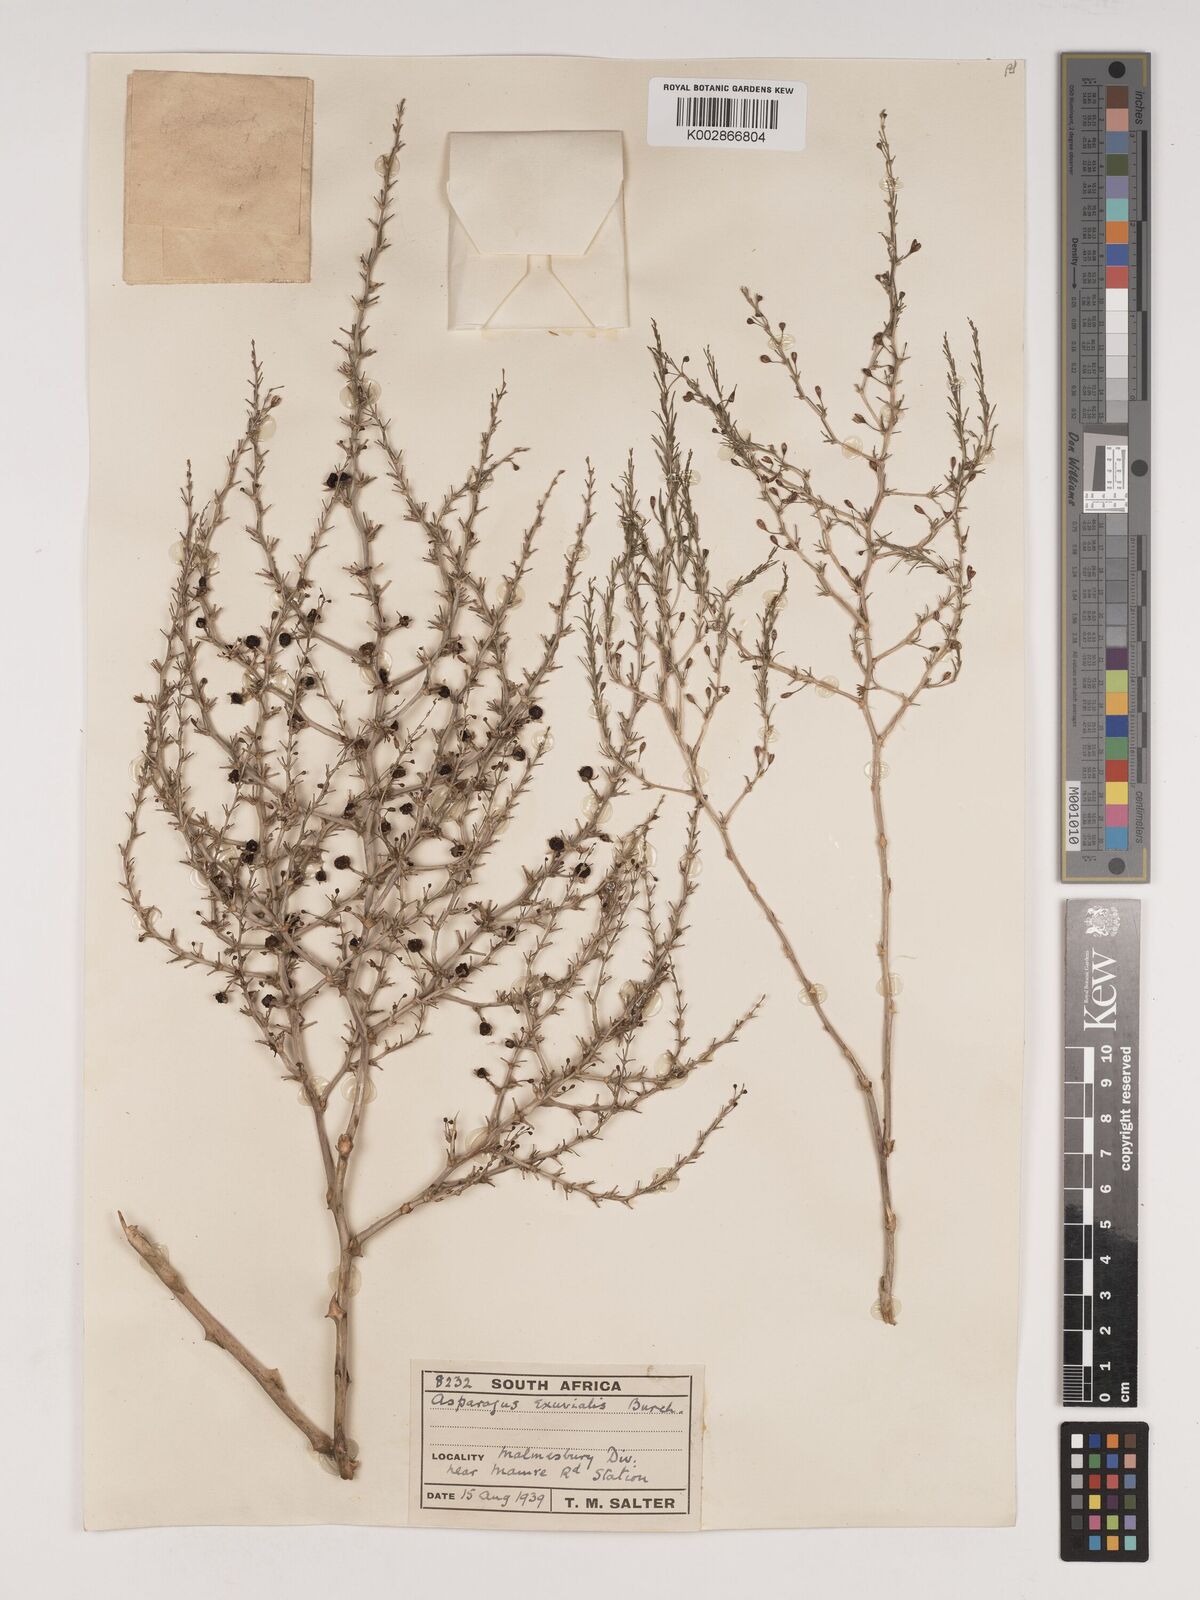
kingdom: Plantae
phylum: Tracheophyta
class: Liliopsida
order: Asparagales
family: Asparagaceae
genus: Asparagus
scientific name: Asparagus exuvialis
